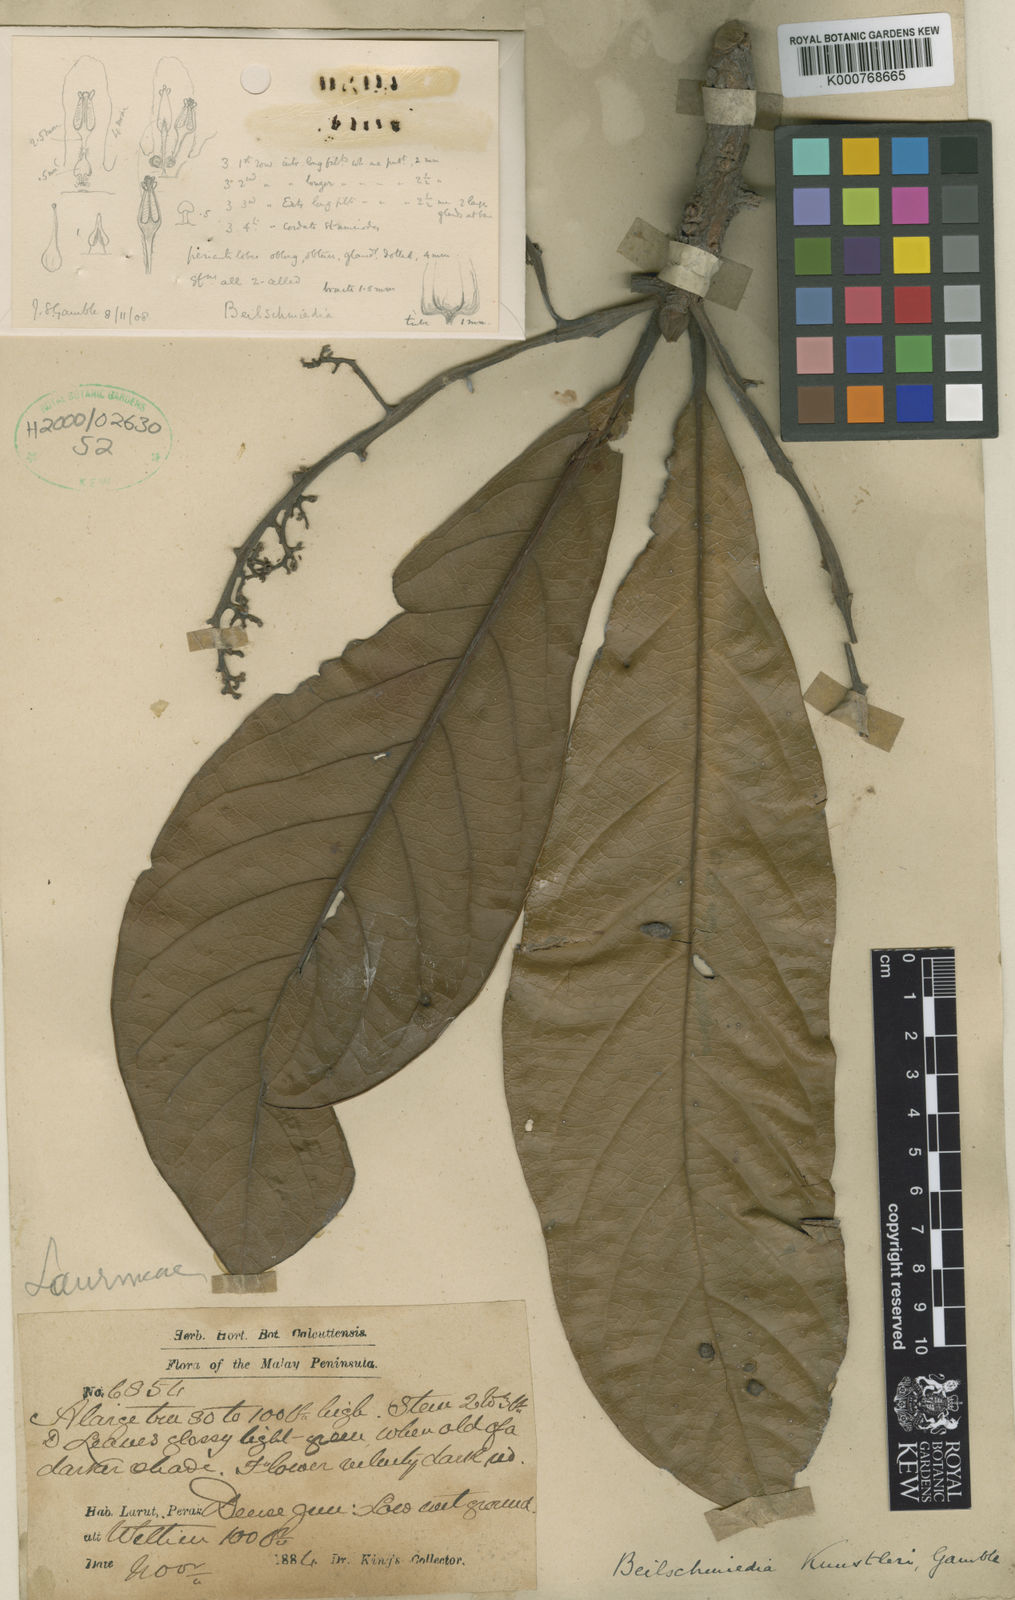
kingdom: Plantae
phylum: Tracheophyta
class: Magnoliopsida
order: Laurales
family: Lauraceae
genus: Beilschmiedia
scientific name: Beilschmiedia kunstleri
